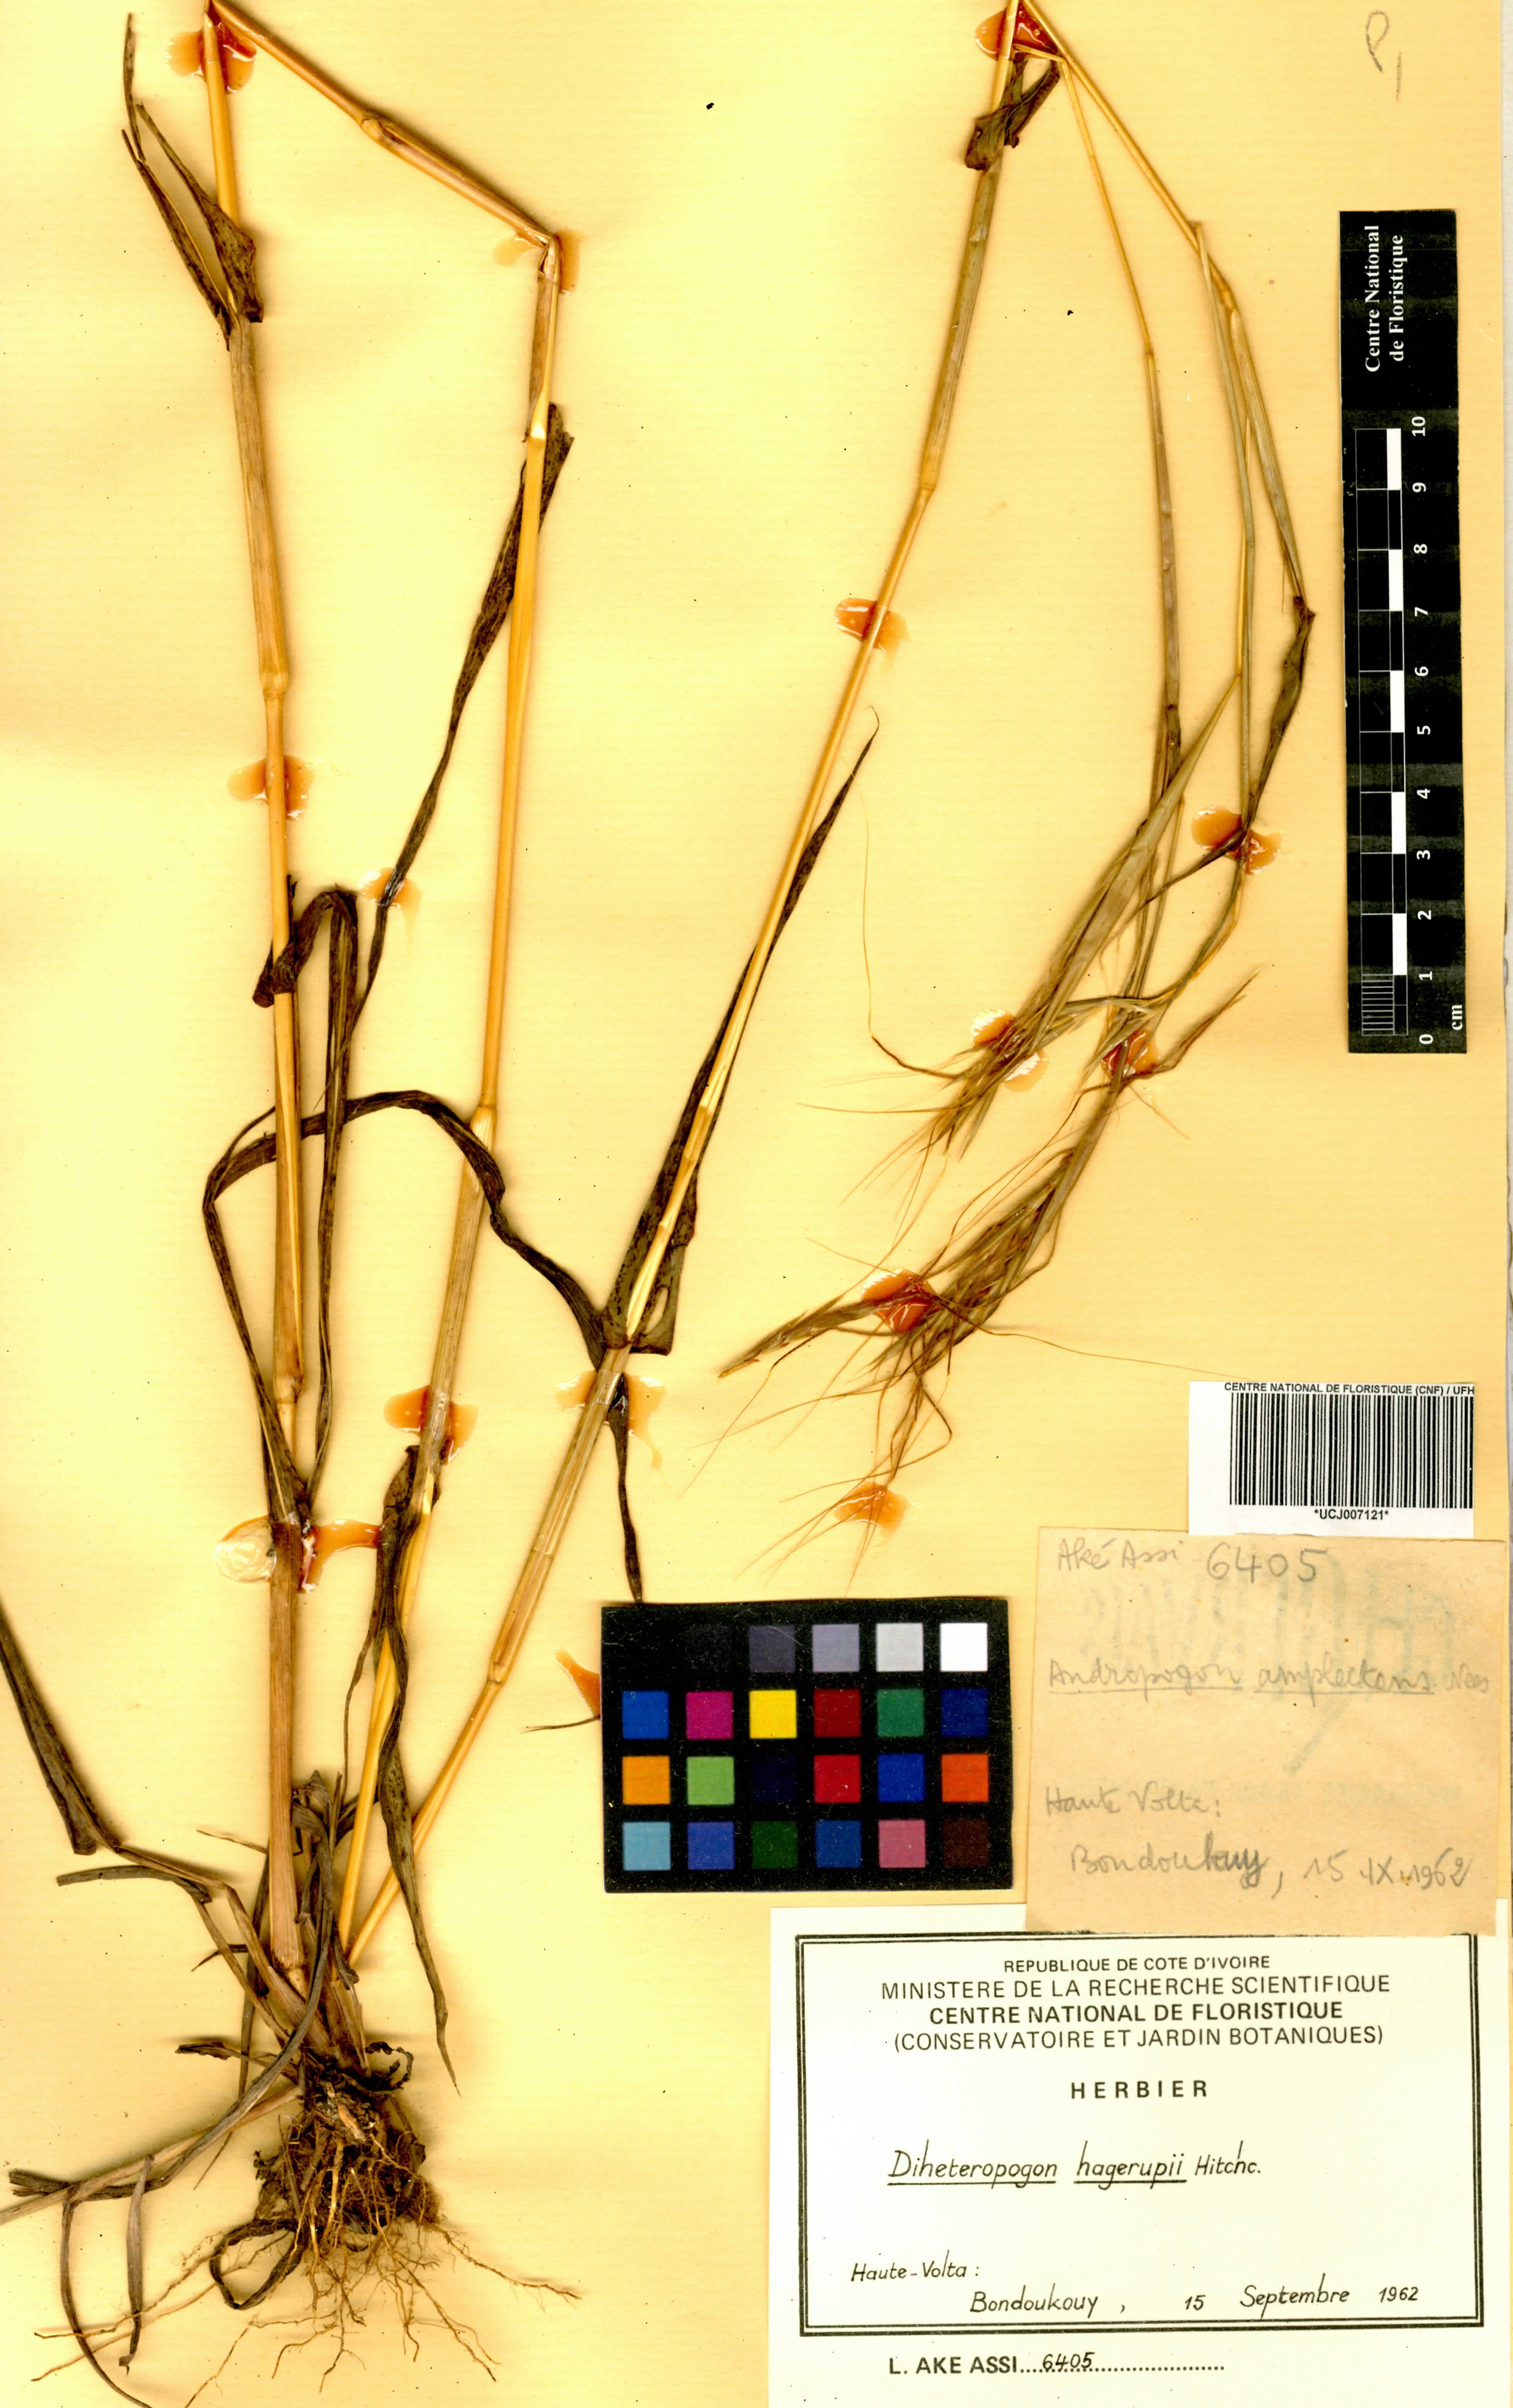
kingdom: Plantae
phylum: Tracheophyta
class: Liliopsida
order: Poales
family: Poaceae
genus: Diheteropogon
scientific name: Diheteropogon hagerupii
